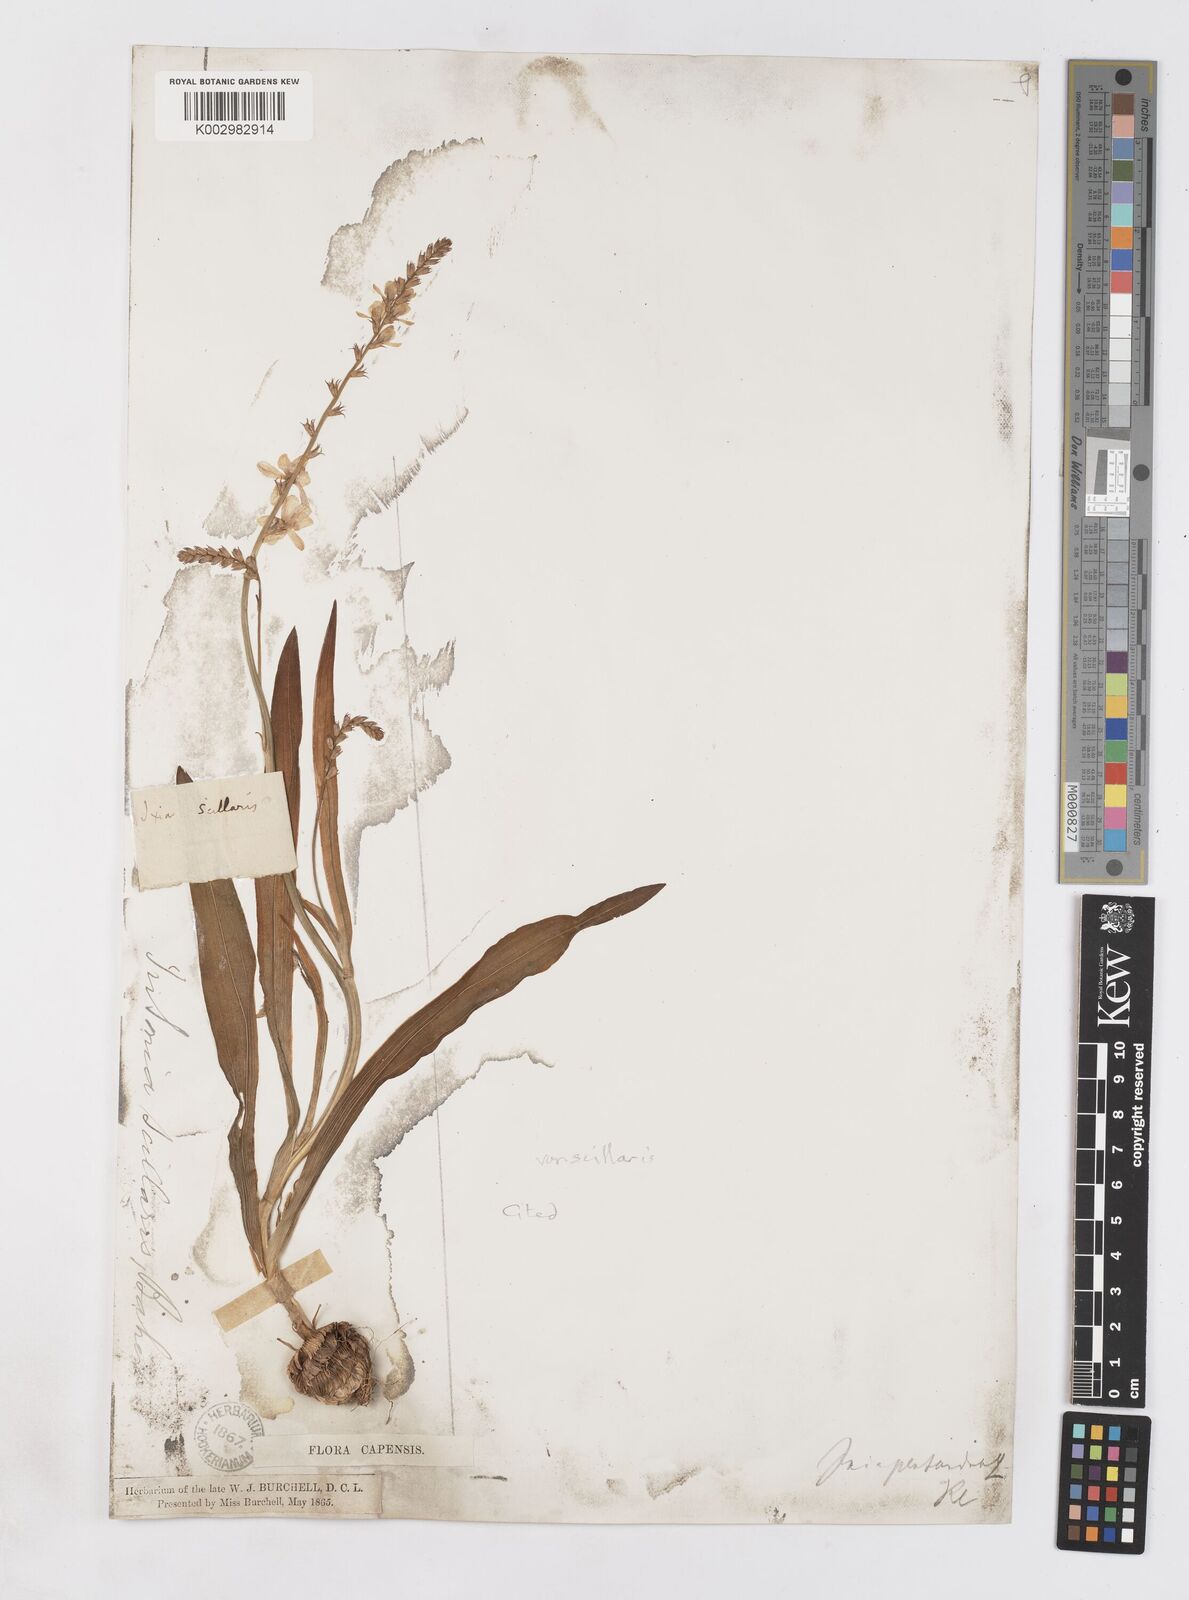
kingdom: Plantae
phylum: Tracheophyta
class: Liliopsida
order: Asparagales
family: Iridaceae
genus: Ixia
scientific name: Ixia scillaris
